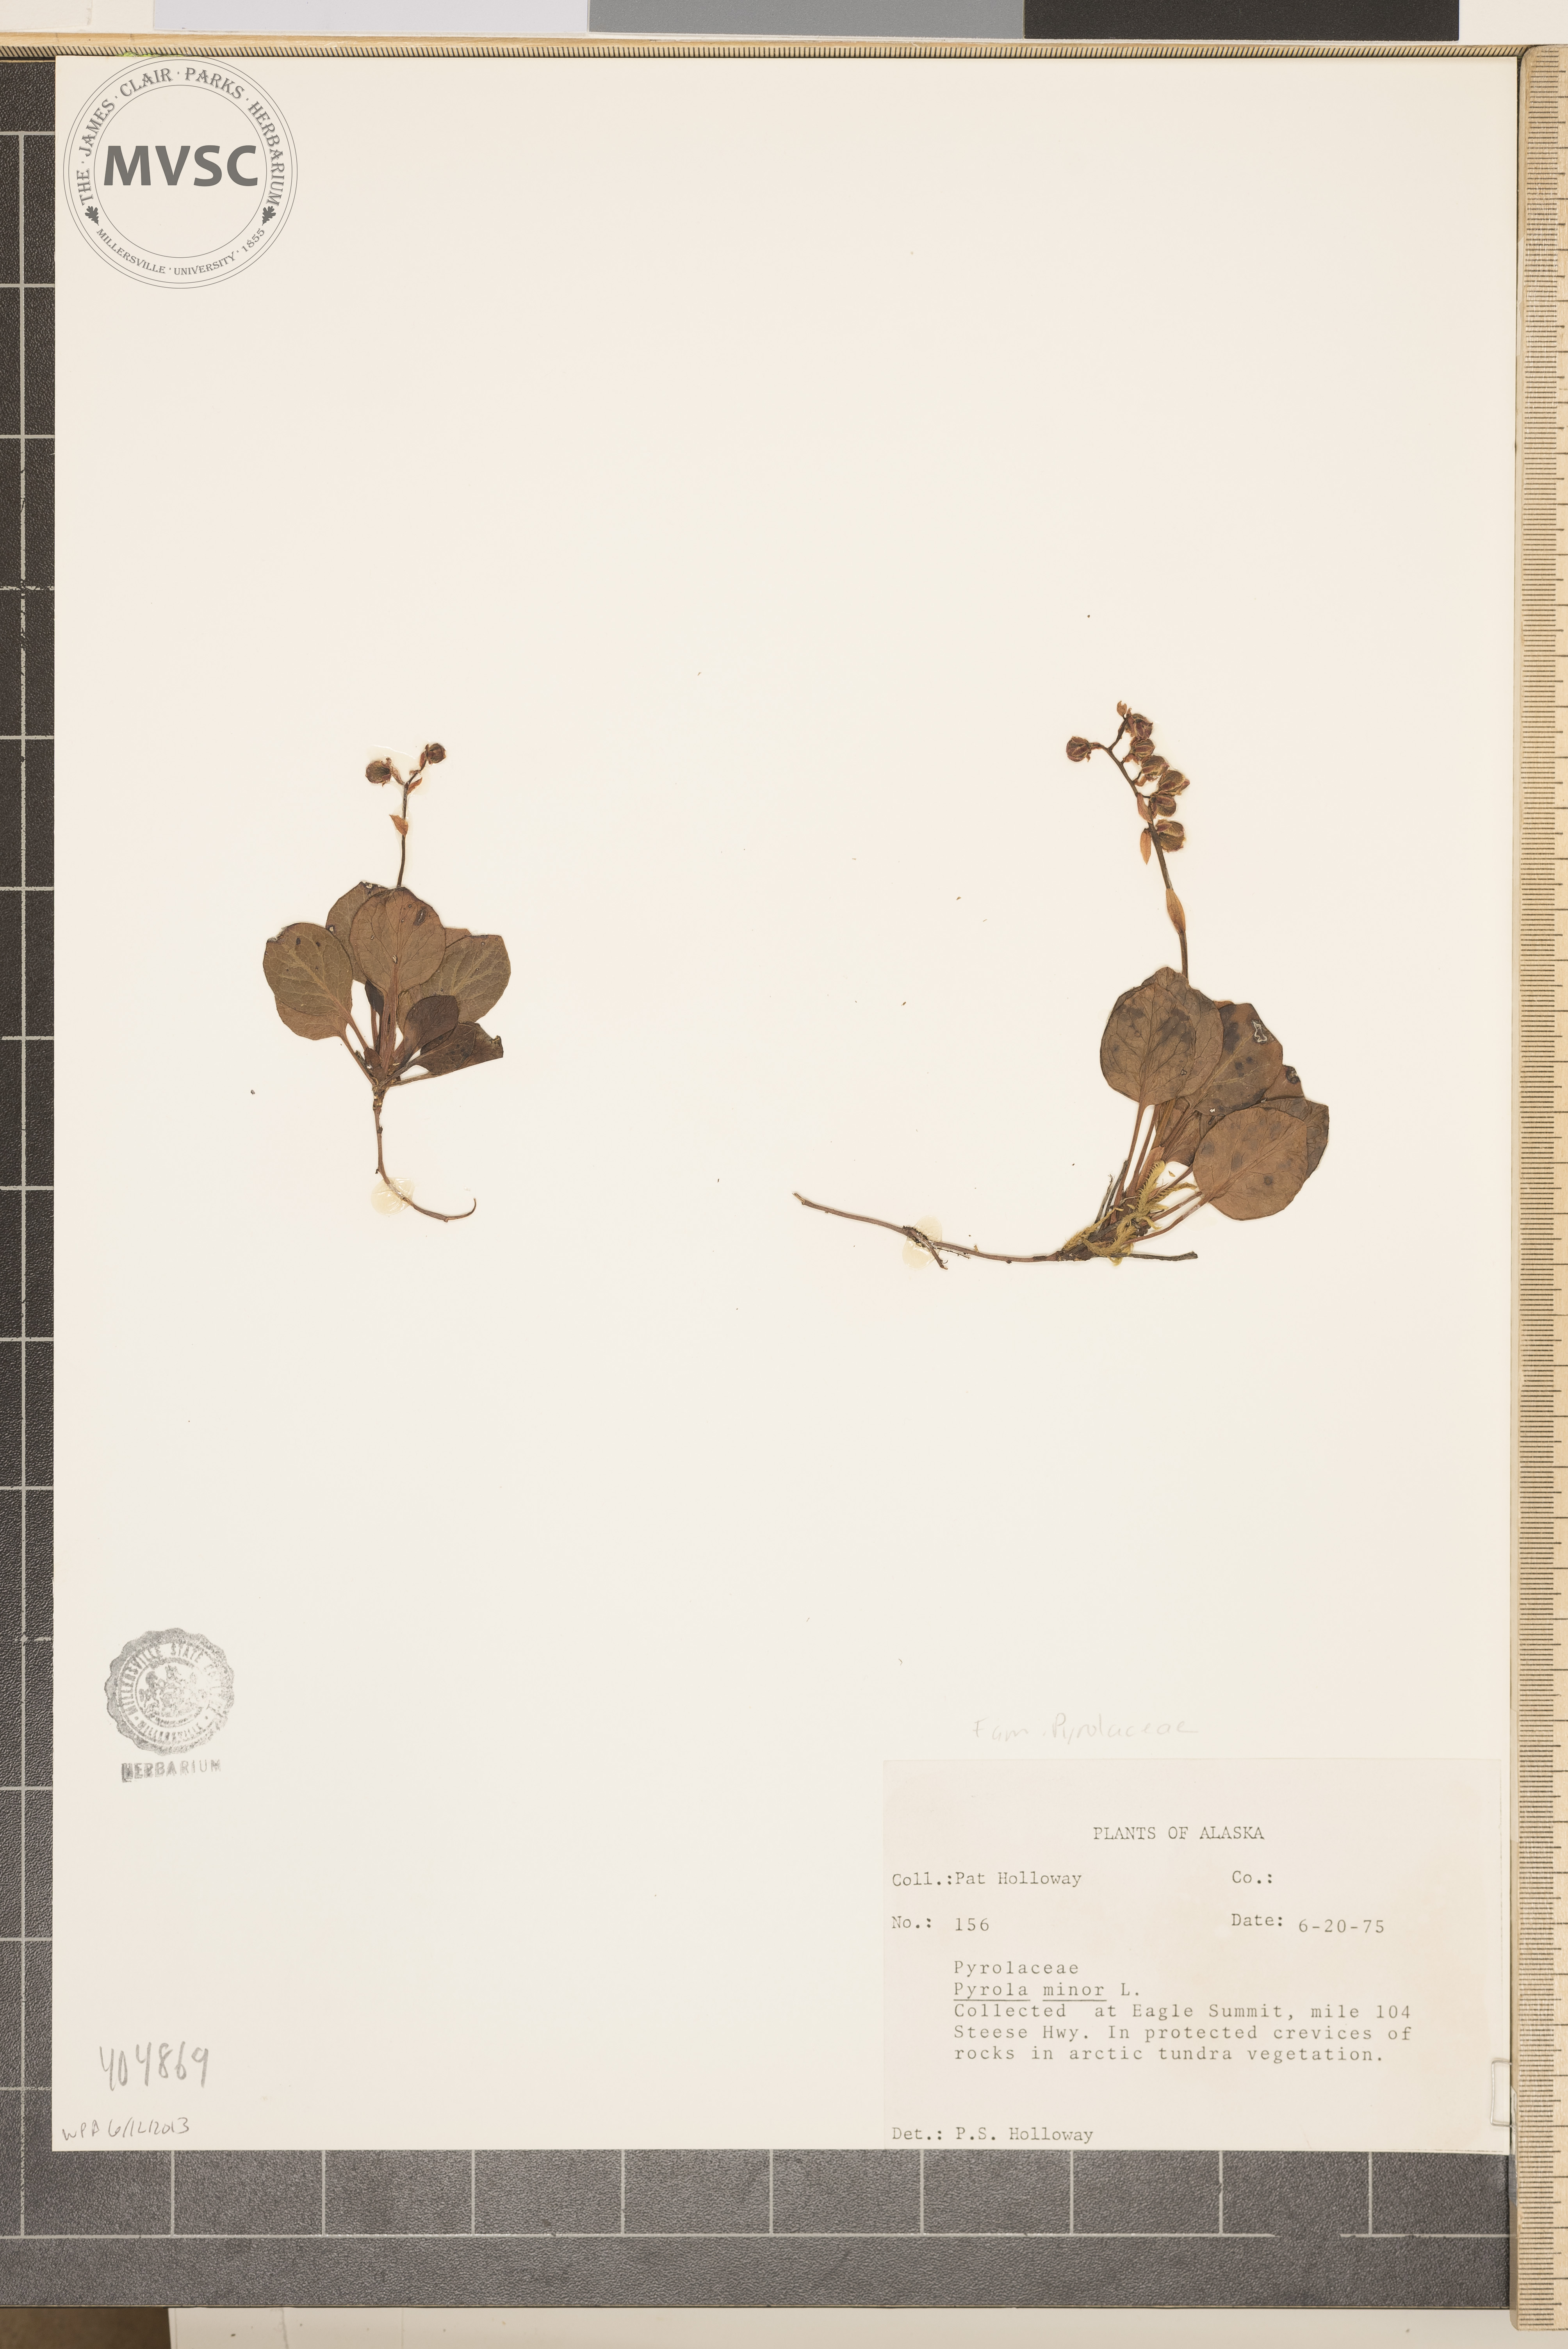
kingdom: Plantae
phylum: Tracheophyta
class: Magnoliopsida
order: Ericales
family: Ericaceae
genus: Pyrola
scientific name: Pyrola minor
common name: Common wintergreen
